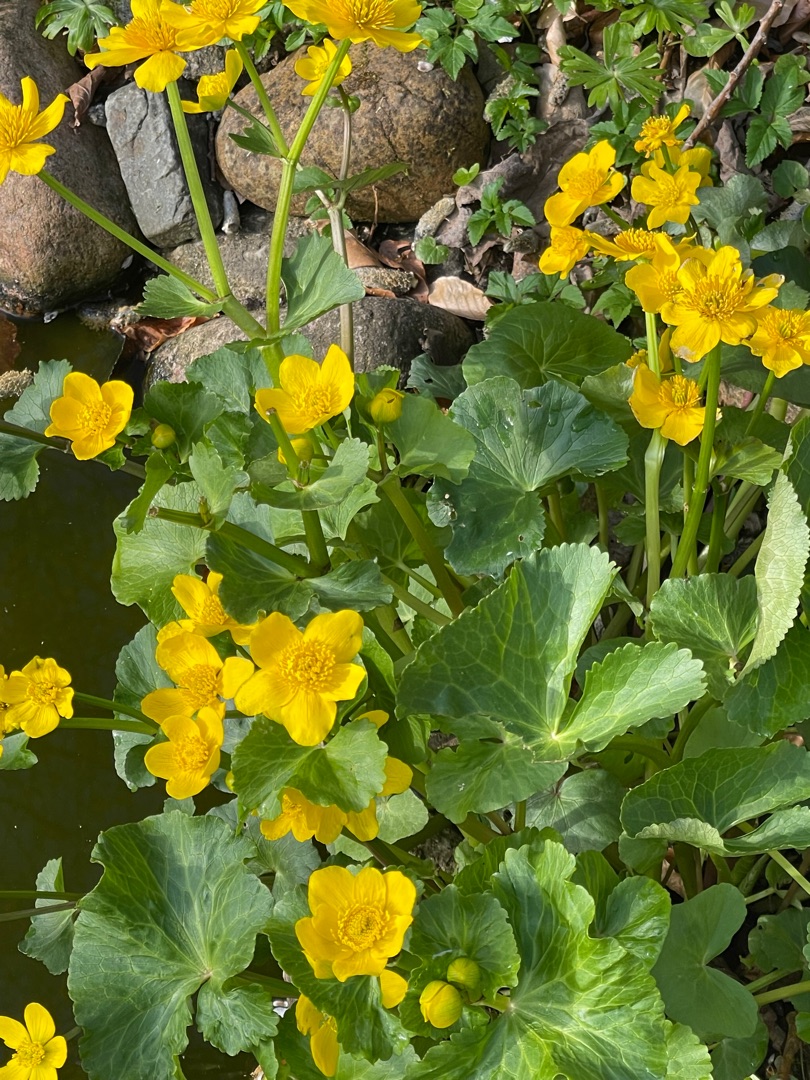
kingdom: Plantae
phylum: Tracheophyta
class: Magnoliopsida
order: Ranunculales
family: Ranunculaceae
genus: Caltha
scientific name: Caltha palustris
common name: Eng-kabbeleje
